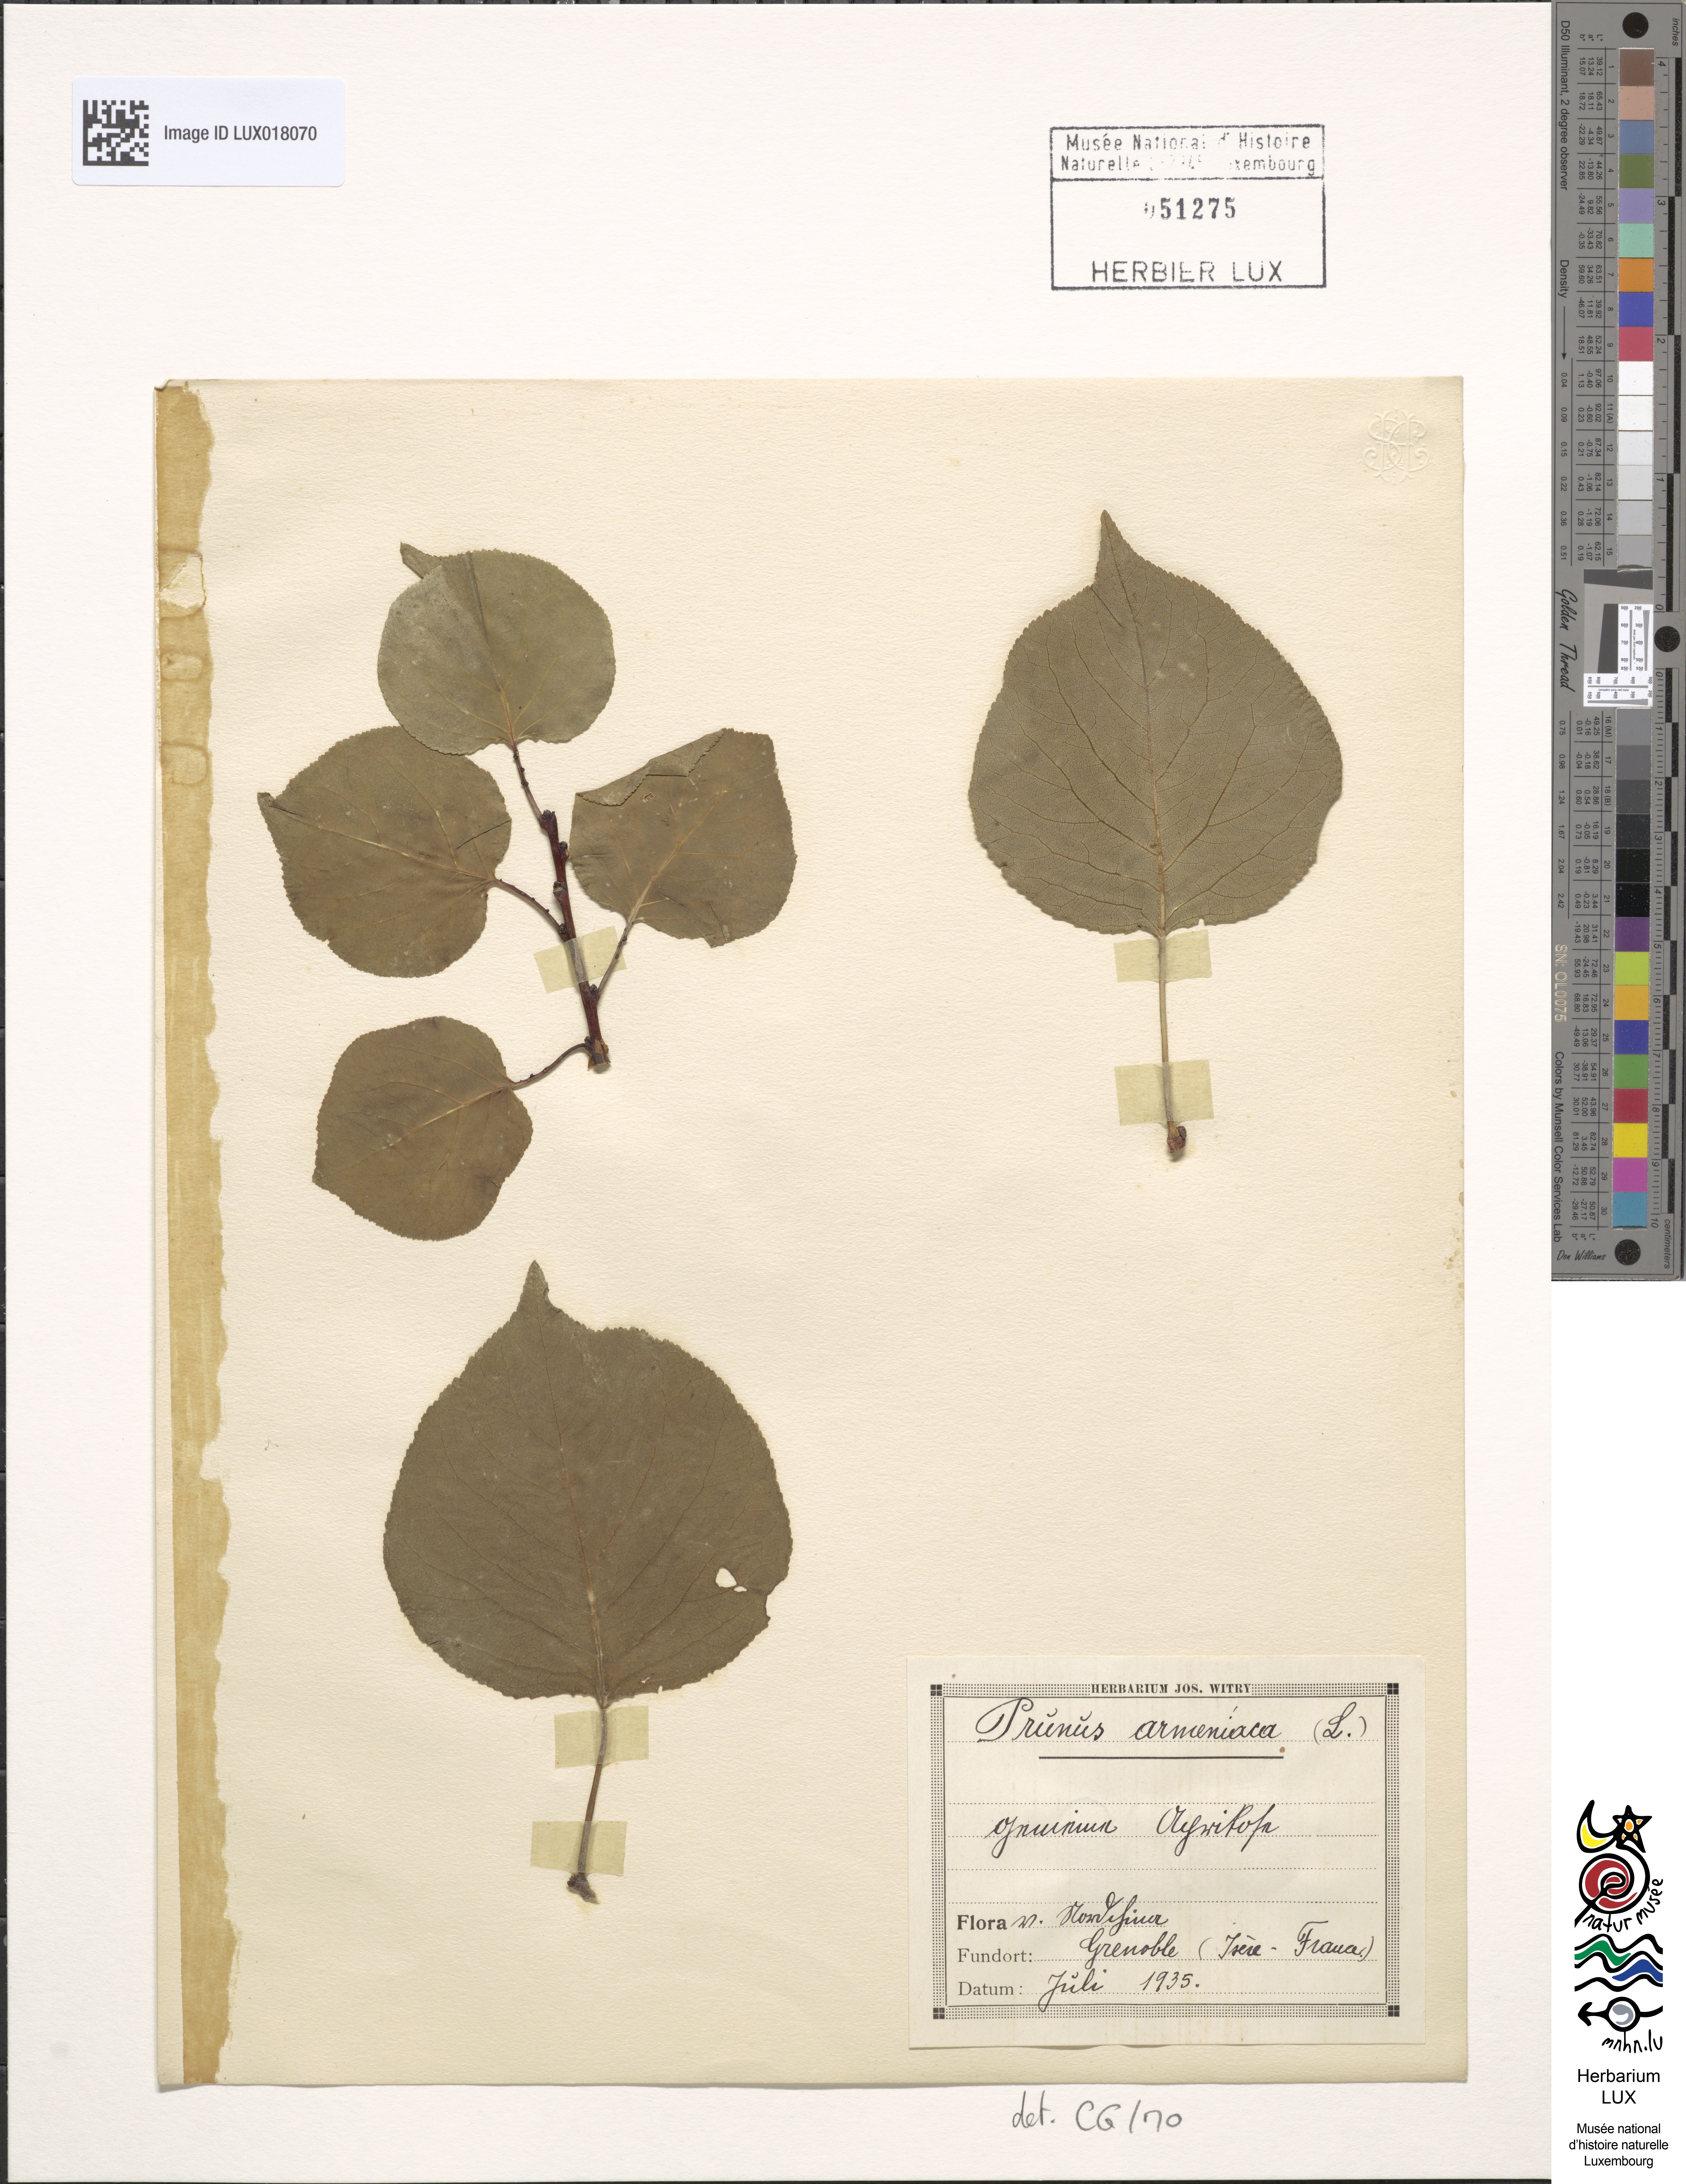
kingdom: Plantae
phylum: Tracheophyta
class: Magnoliopsida
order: Rosales
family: Rosaceae
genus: Prunus
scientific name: Prunus armeniaca
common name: Apricot
